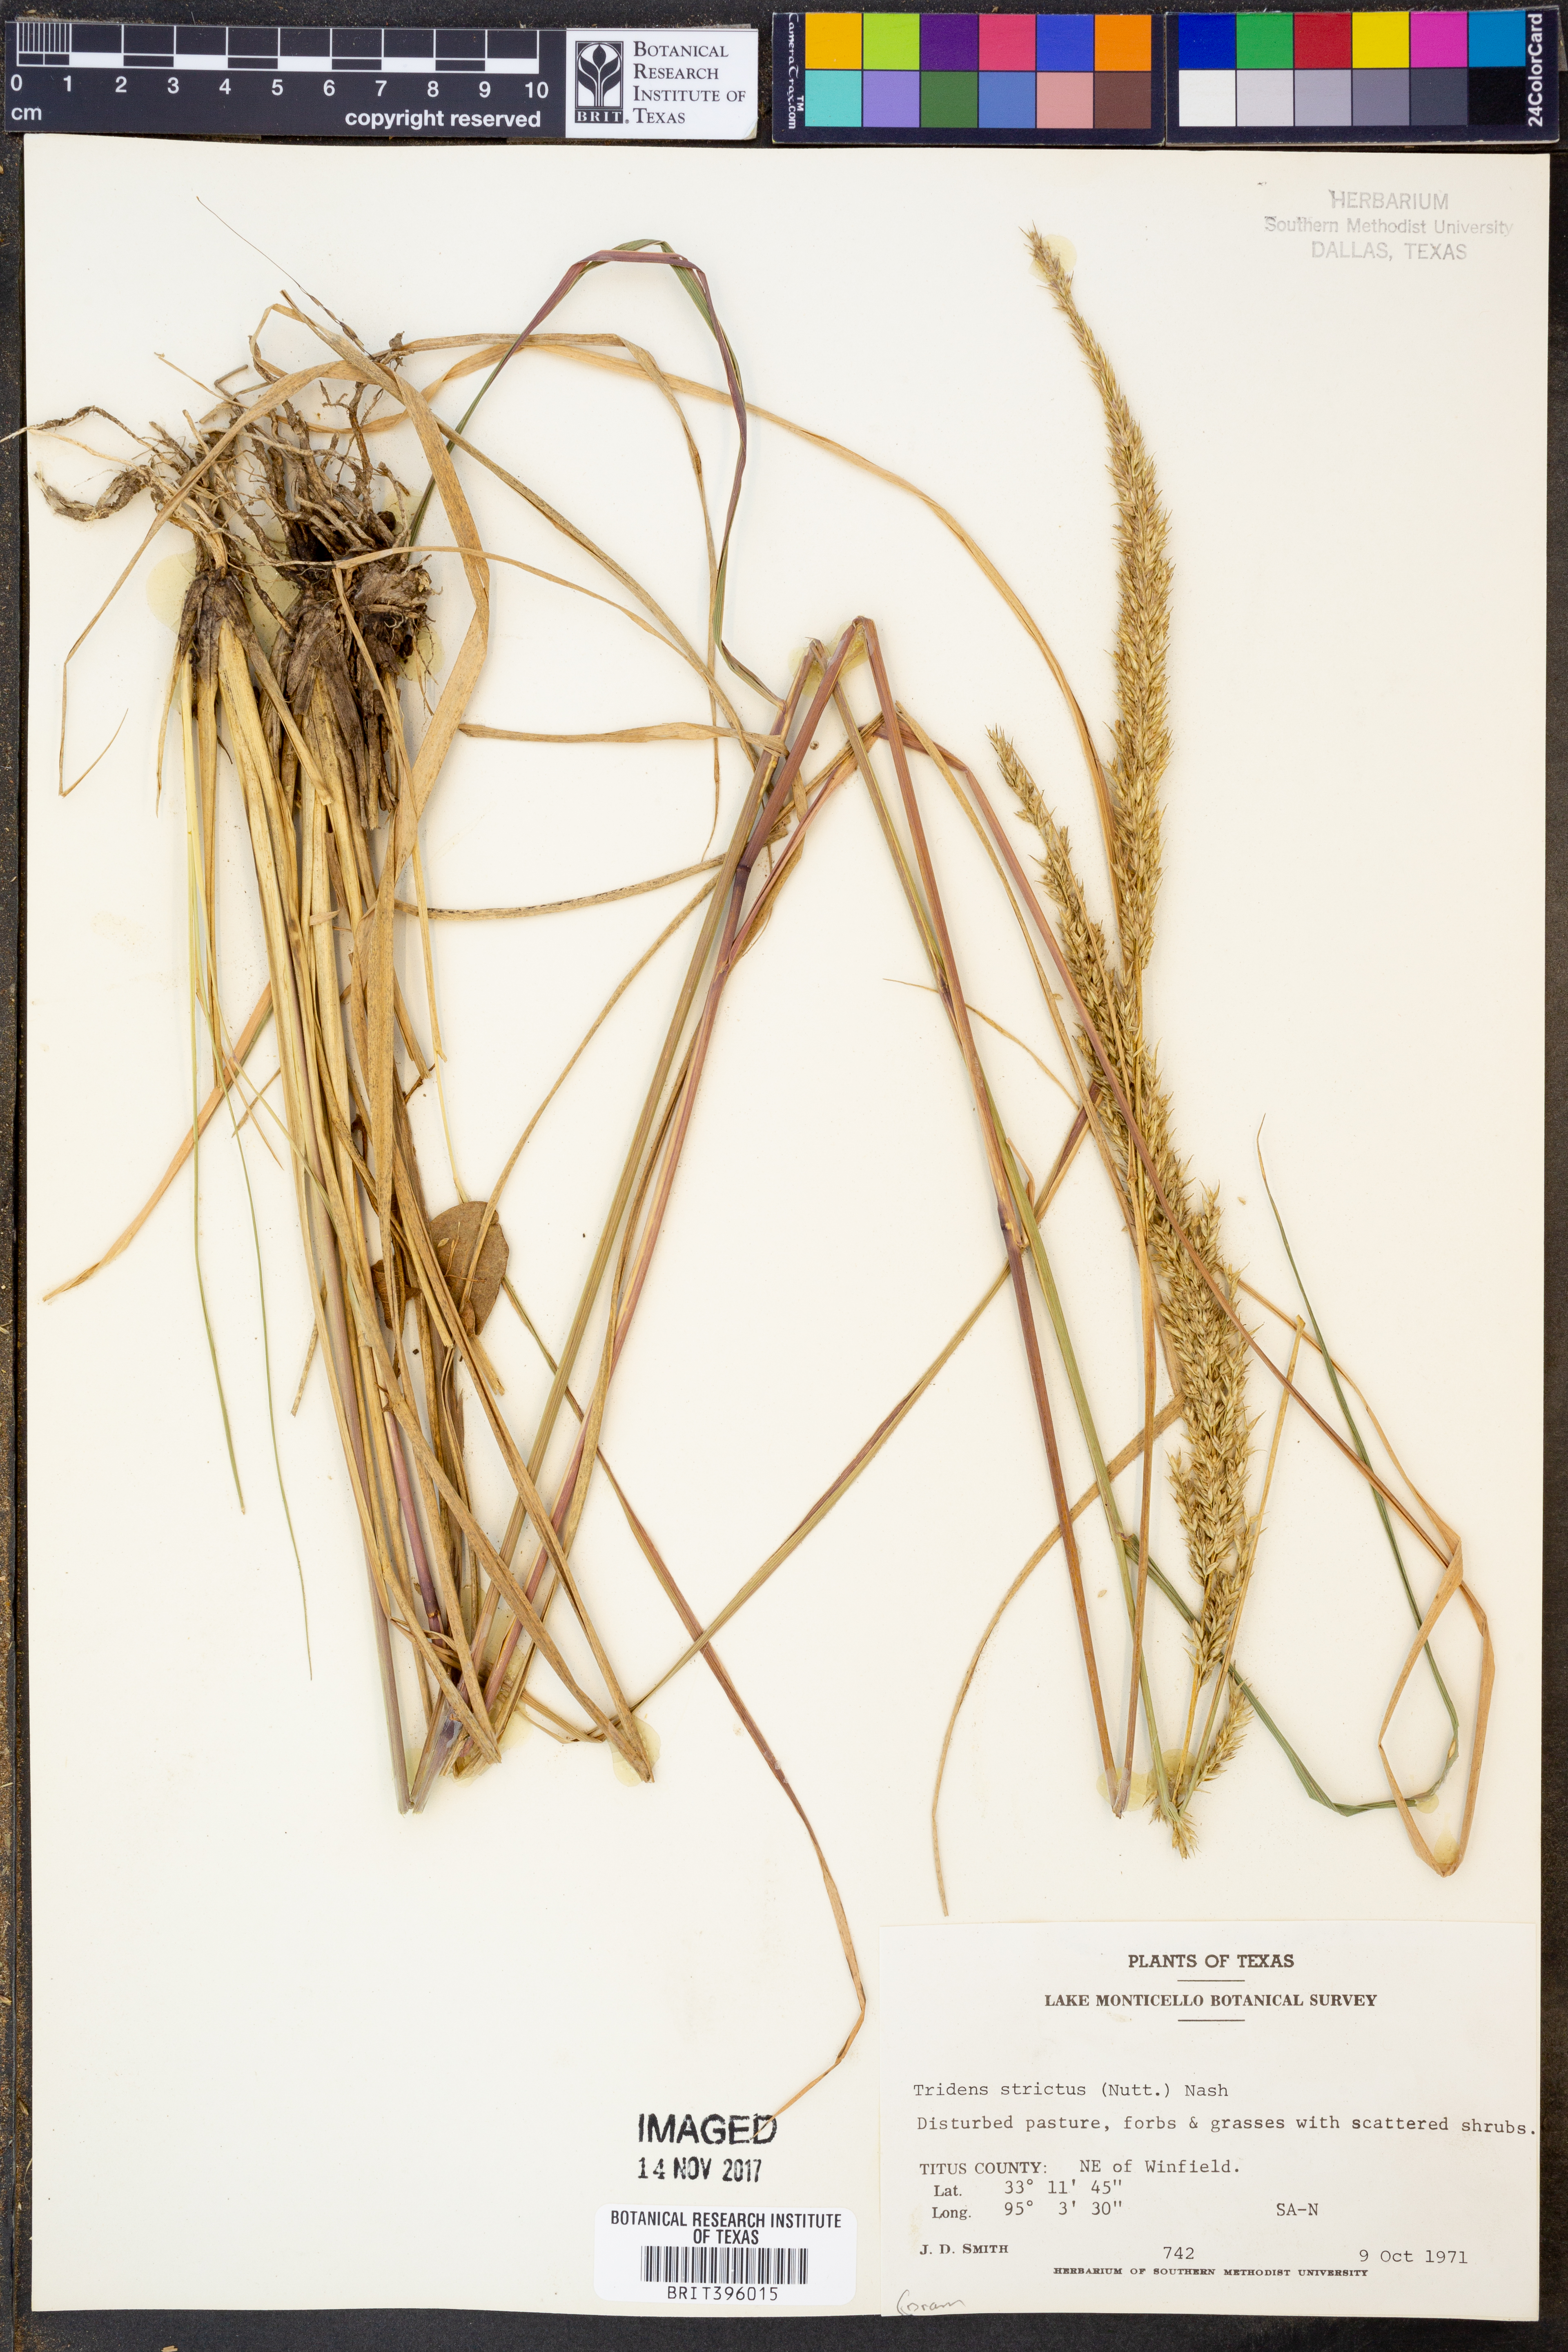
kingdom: Plantae
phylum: Tracheophyta
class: Liliopsida
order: Poales
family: Poaceae
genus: Tridens
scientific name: Tridens strictus
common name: Long-spike tridens
